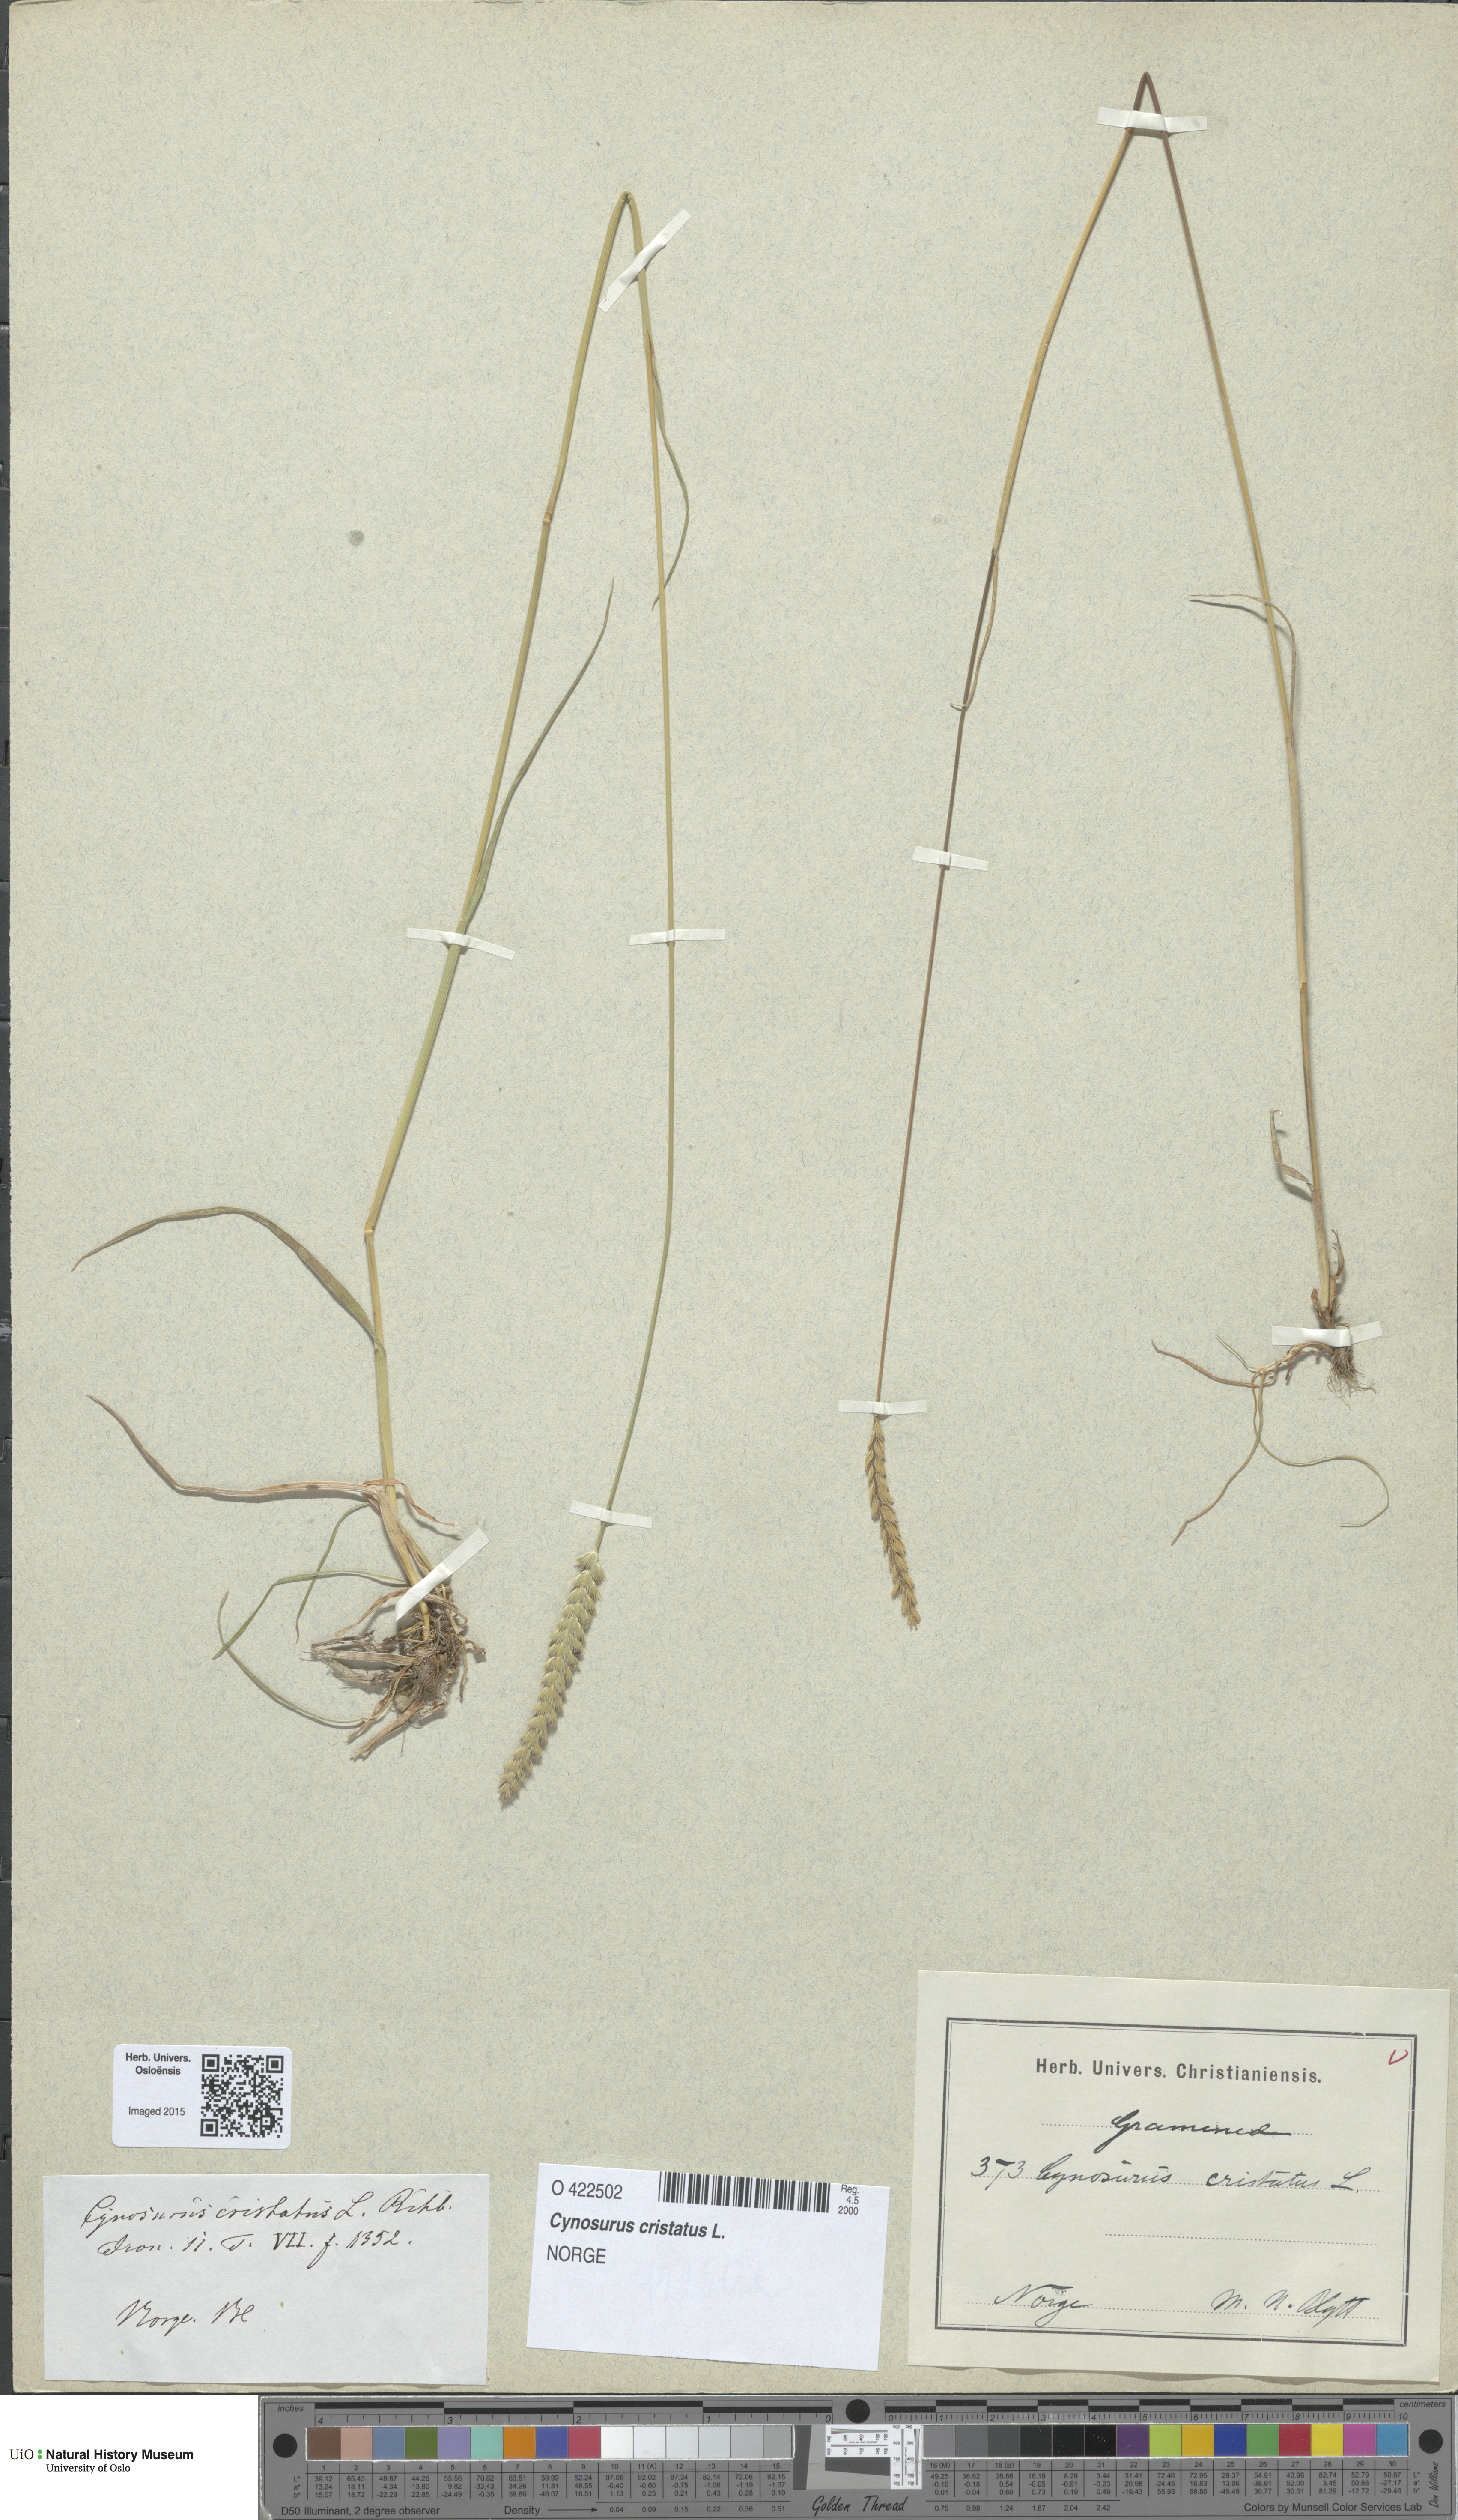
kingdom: Plantae
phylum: Tracheophyta
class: Liliopsida
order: Poales
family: Poaceae
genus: Cynosurus
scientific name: Cynosurus cristatus
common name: Crested dog's-tail
